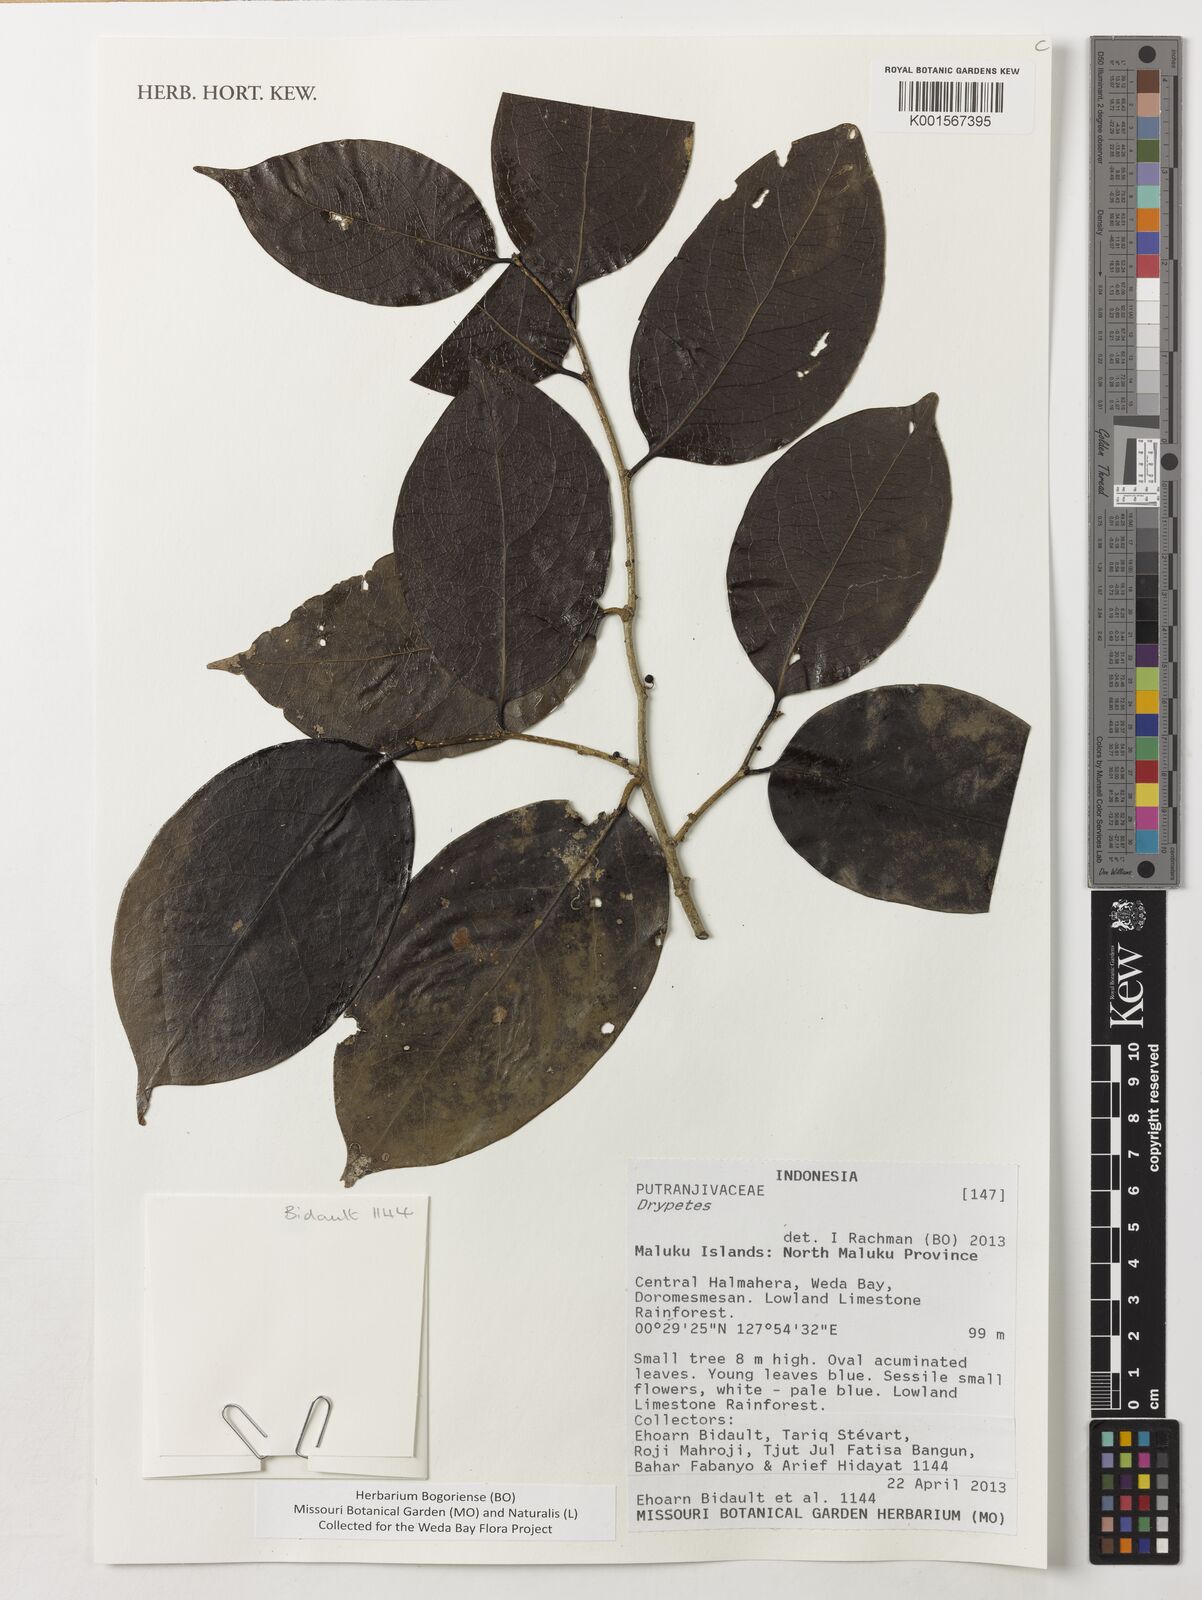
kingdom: Plantae
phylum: Tracheophyta
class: Magnoliopsida
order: Malpighiales
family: Putranjivaceae
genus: Drypetes
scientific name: Drypetes
